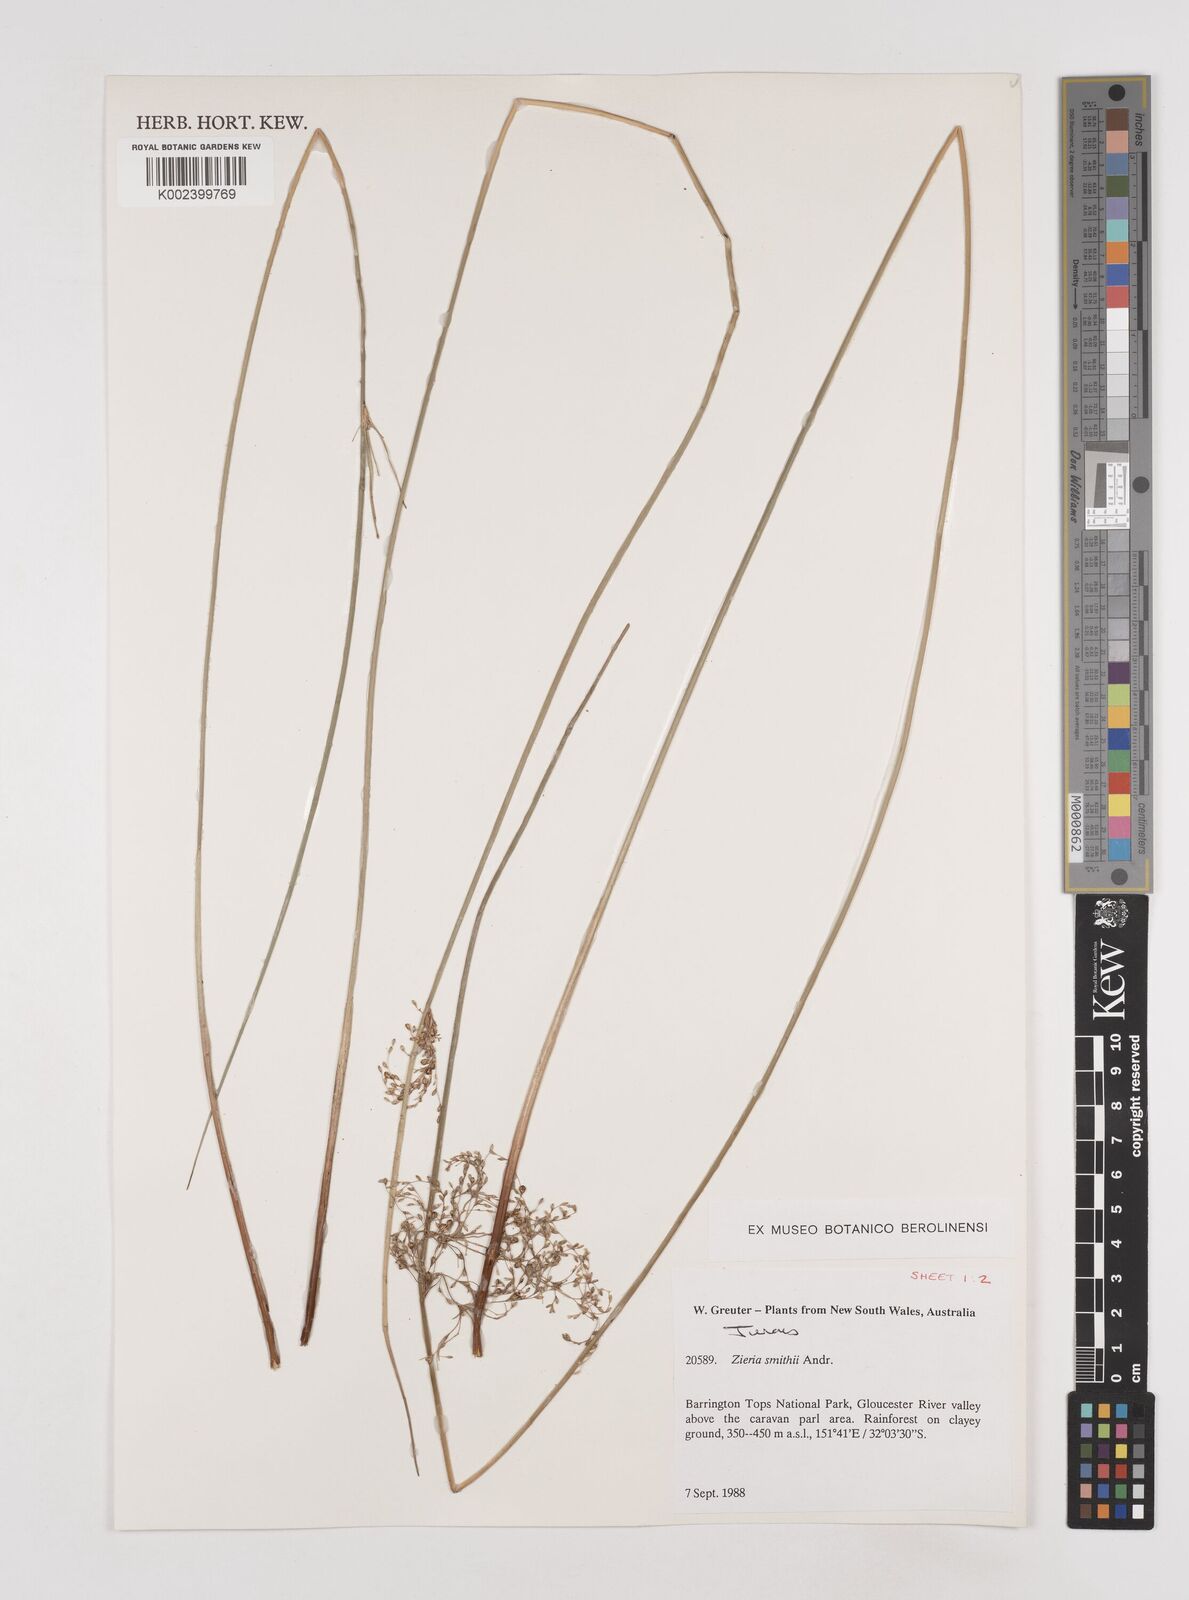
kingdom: Plantae
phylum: Tracheophyta
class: Liliopsida
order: Poales
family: Juncaceae
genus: Juncus
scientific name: Juncus
